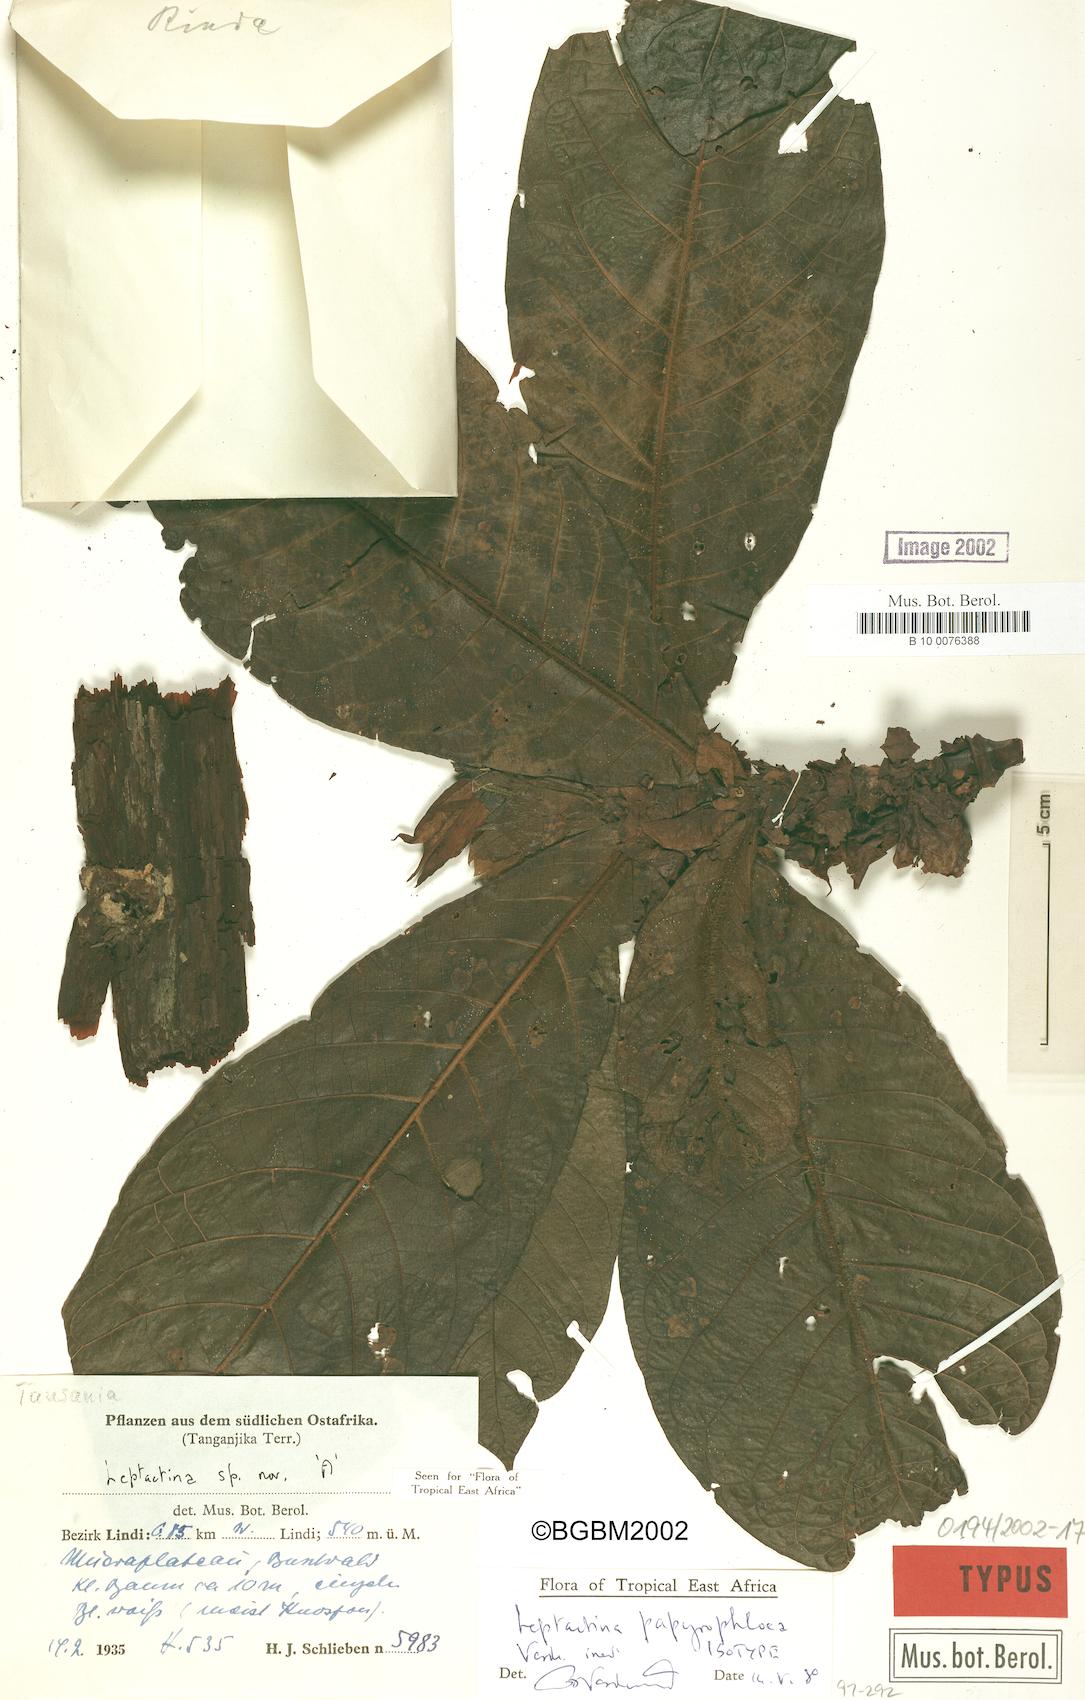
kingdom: Plantae
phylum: Tracheophyta
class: Magnoliopsida
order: Gentianales
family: Rubiaceae
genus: Leptactina
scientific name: Leptactina papyrophloea
